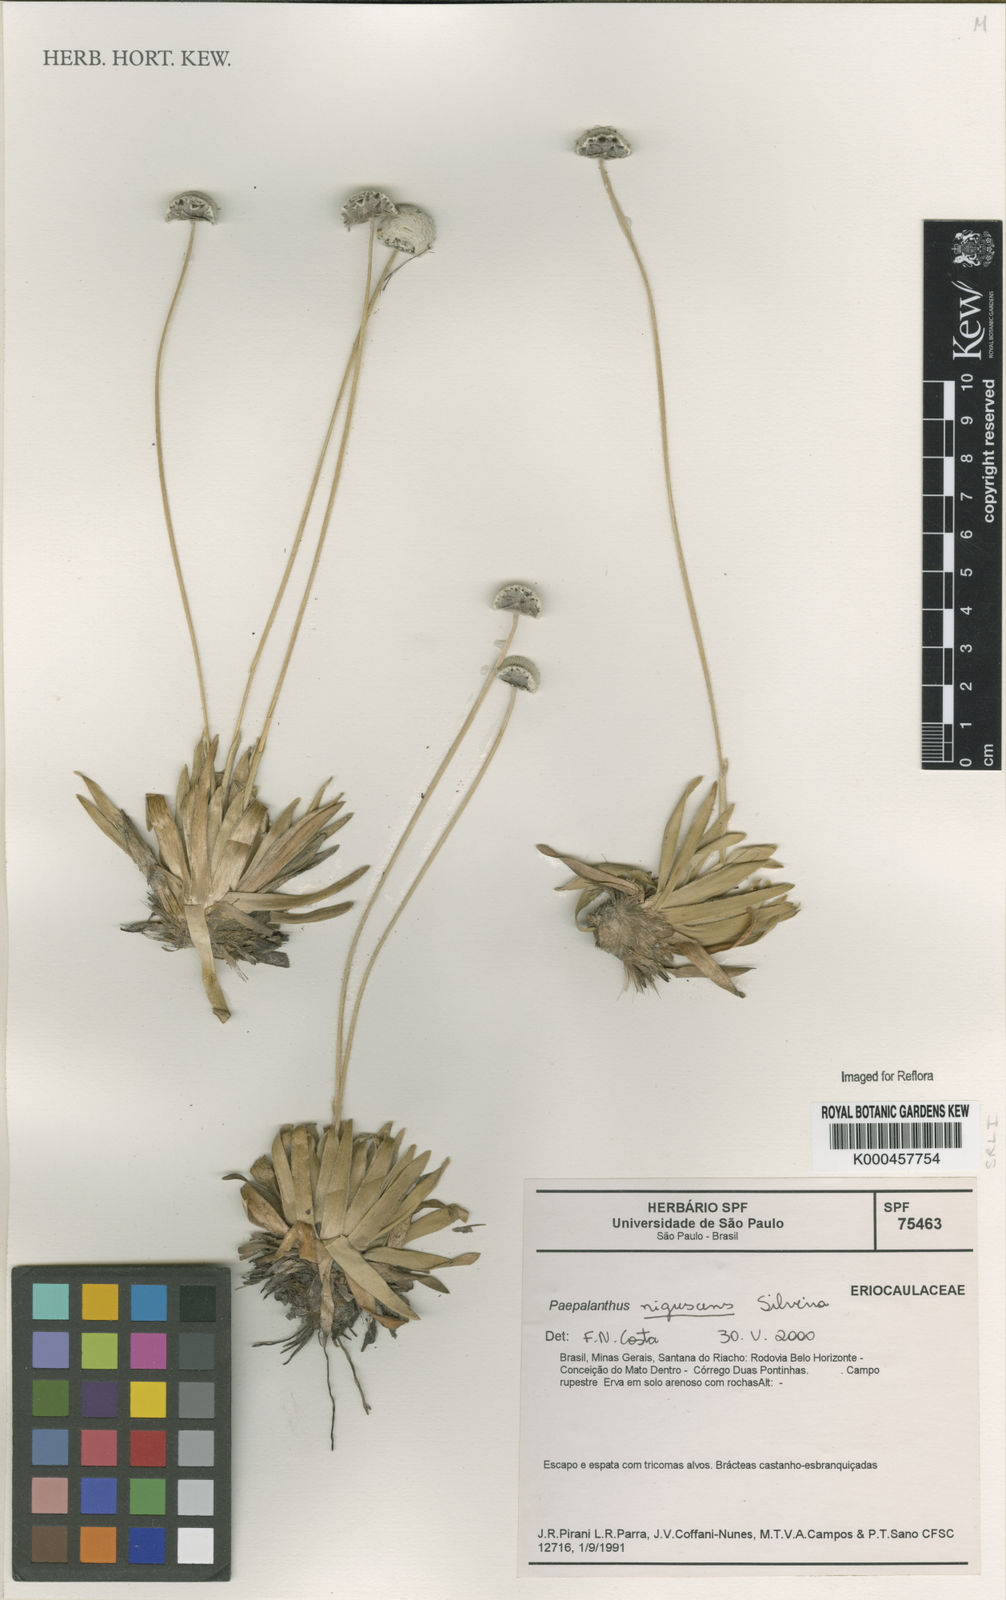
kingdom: Plantae
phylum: Tracheophyta
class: Liliopsida
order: Poales
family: Eriocaulaceae
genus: Paepalanthus
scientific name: Paepalanthus nigrescens
